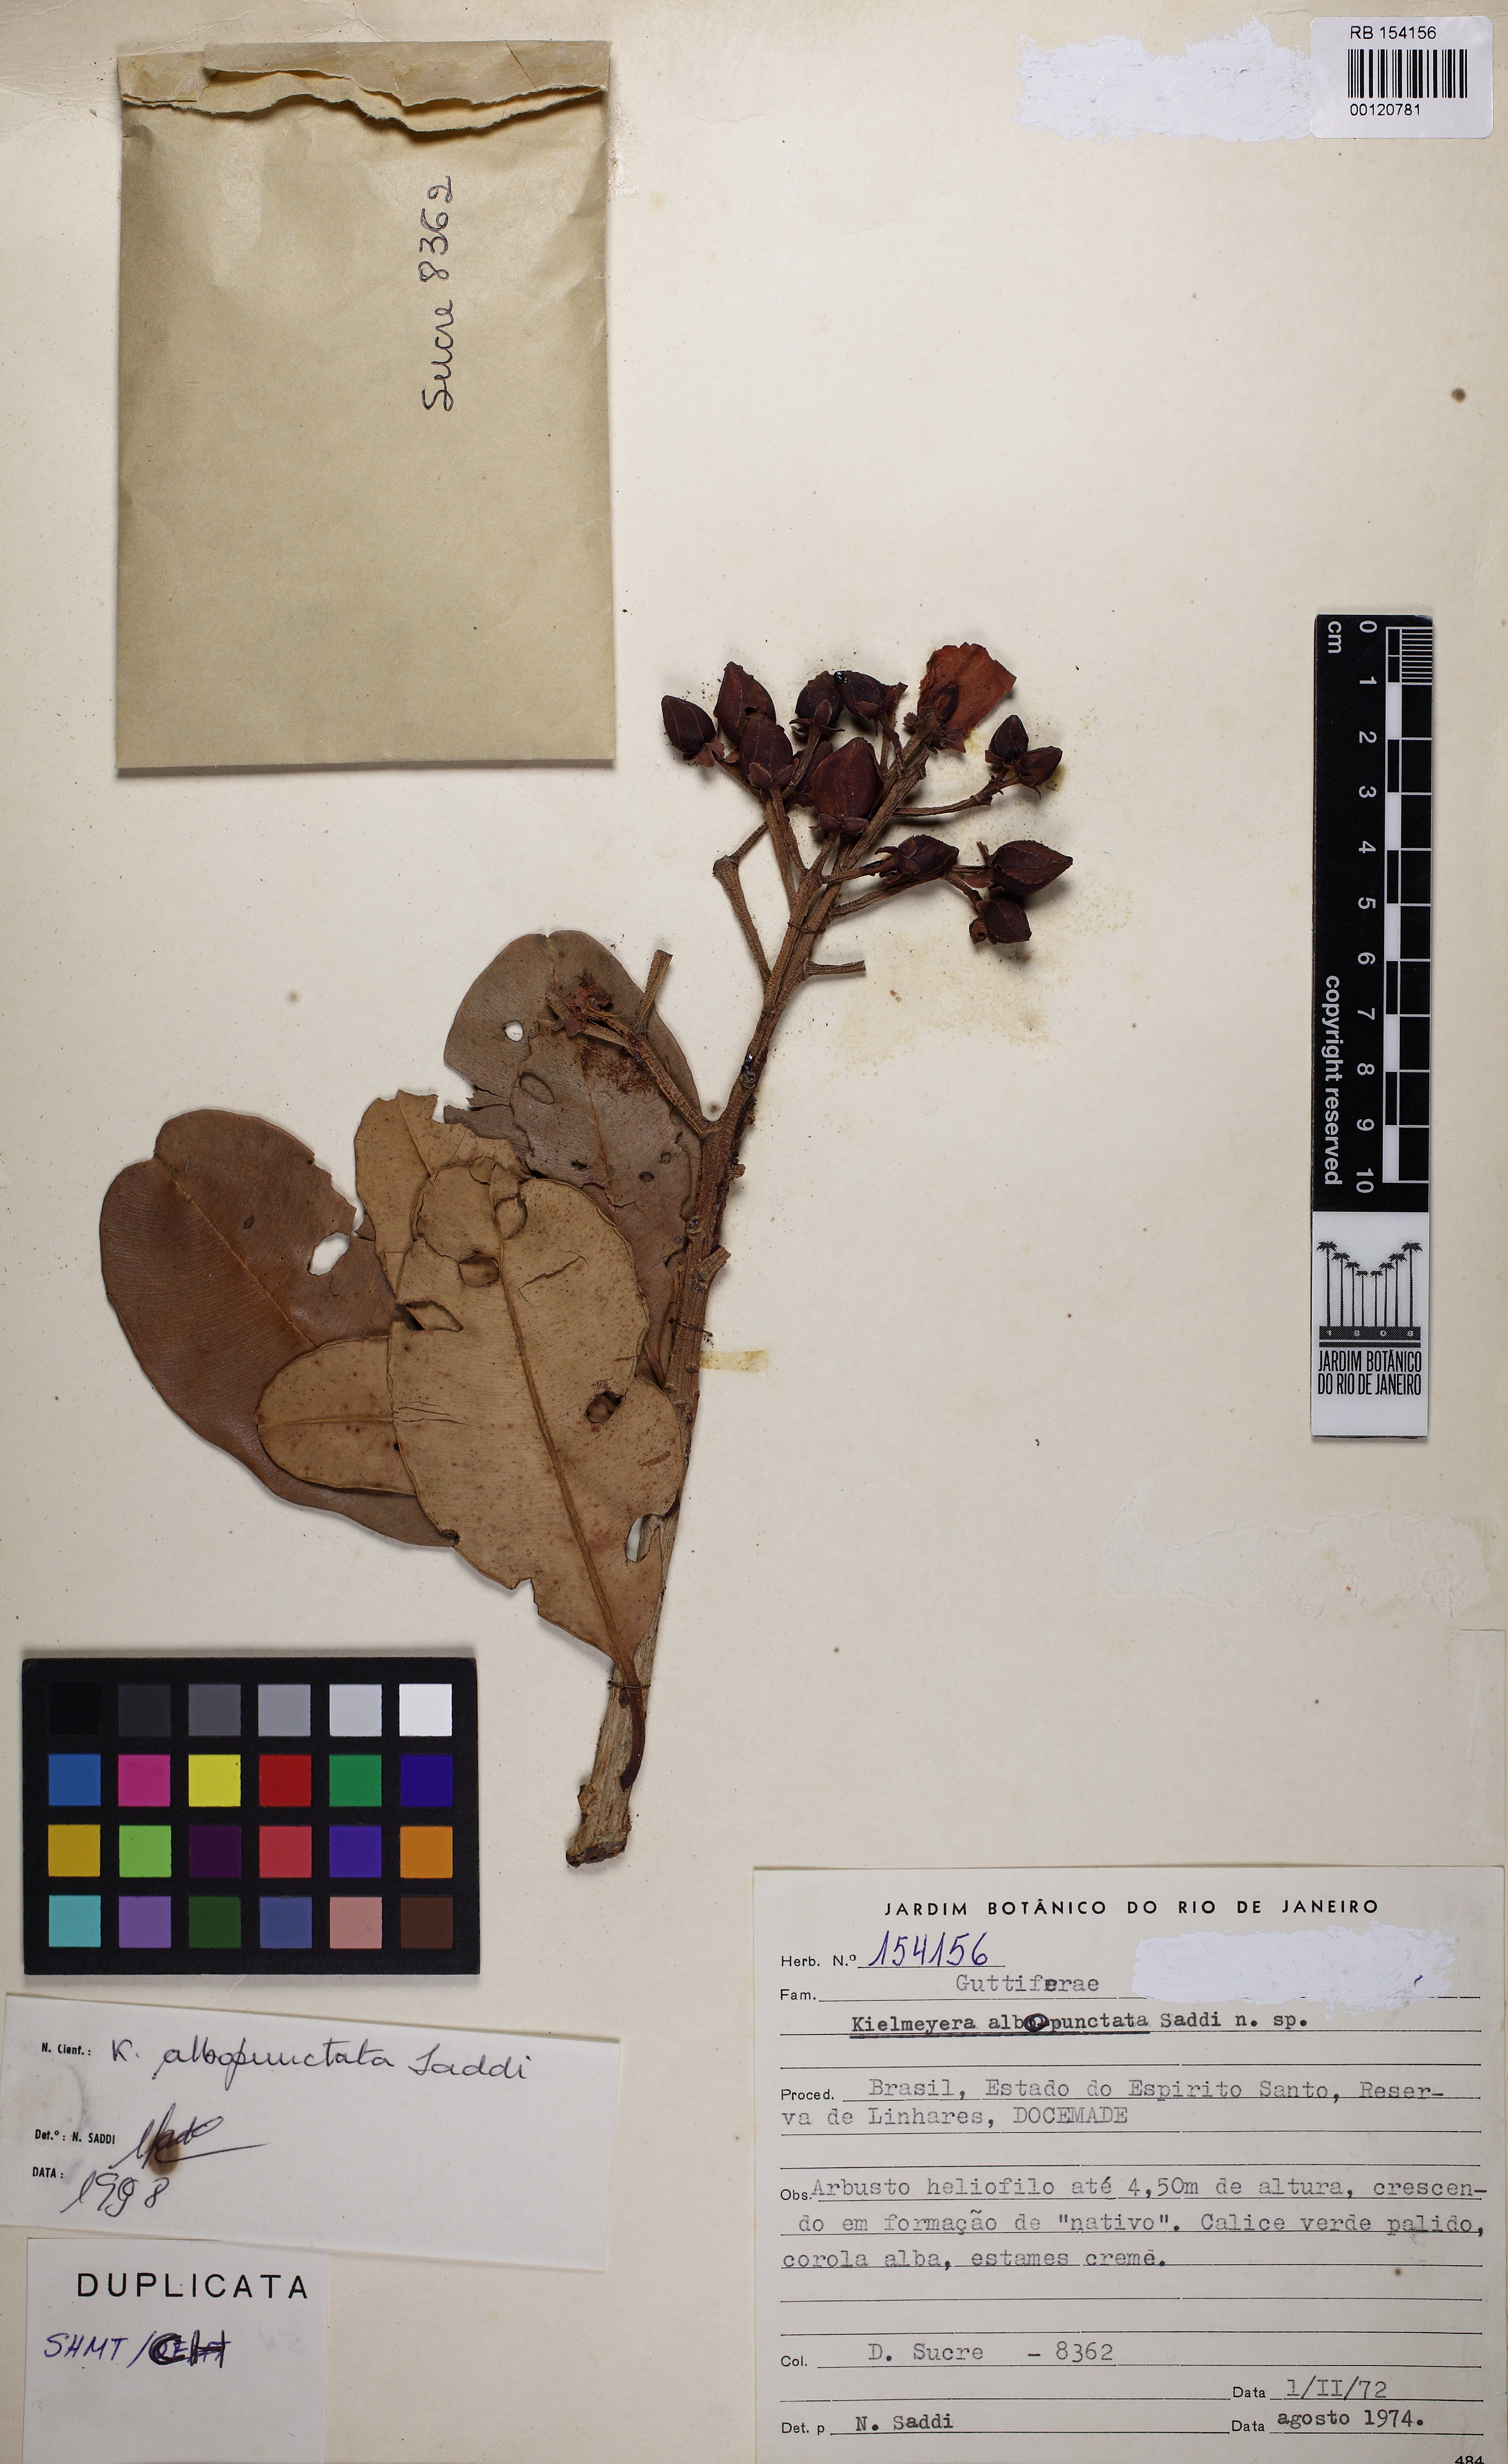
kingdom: Plantae
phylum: Tracheophyta
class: Magnoliopsida
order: Malpighiales
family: Calophyllaceae
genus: Kielmeyera
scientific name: Kielmeyera albopunctata
